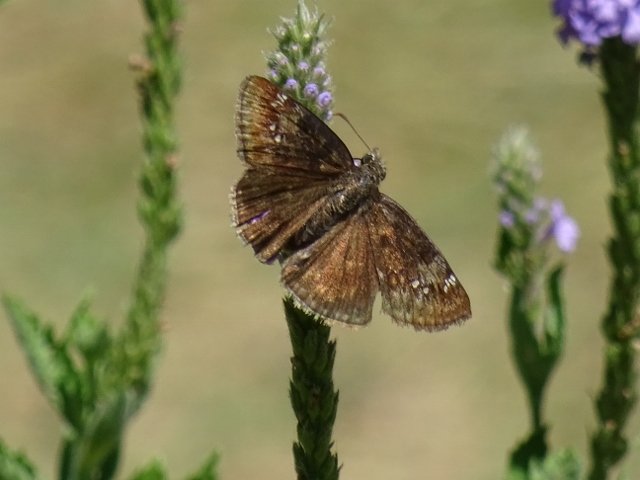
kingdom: Animalia
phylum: Arthropoda
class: Insecta
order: Lepidoptera
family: Hesperiidae
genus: Gesta
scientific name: Gesta
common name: Wild Indigo Duskywing
